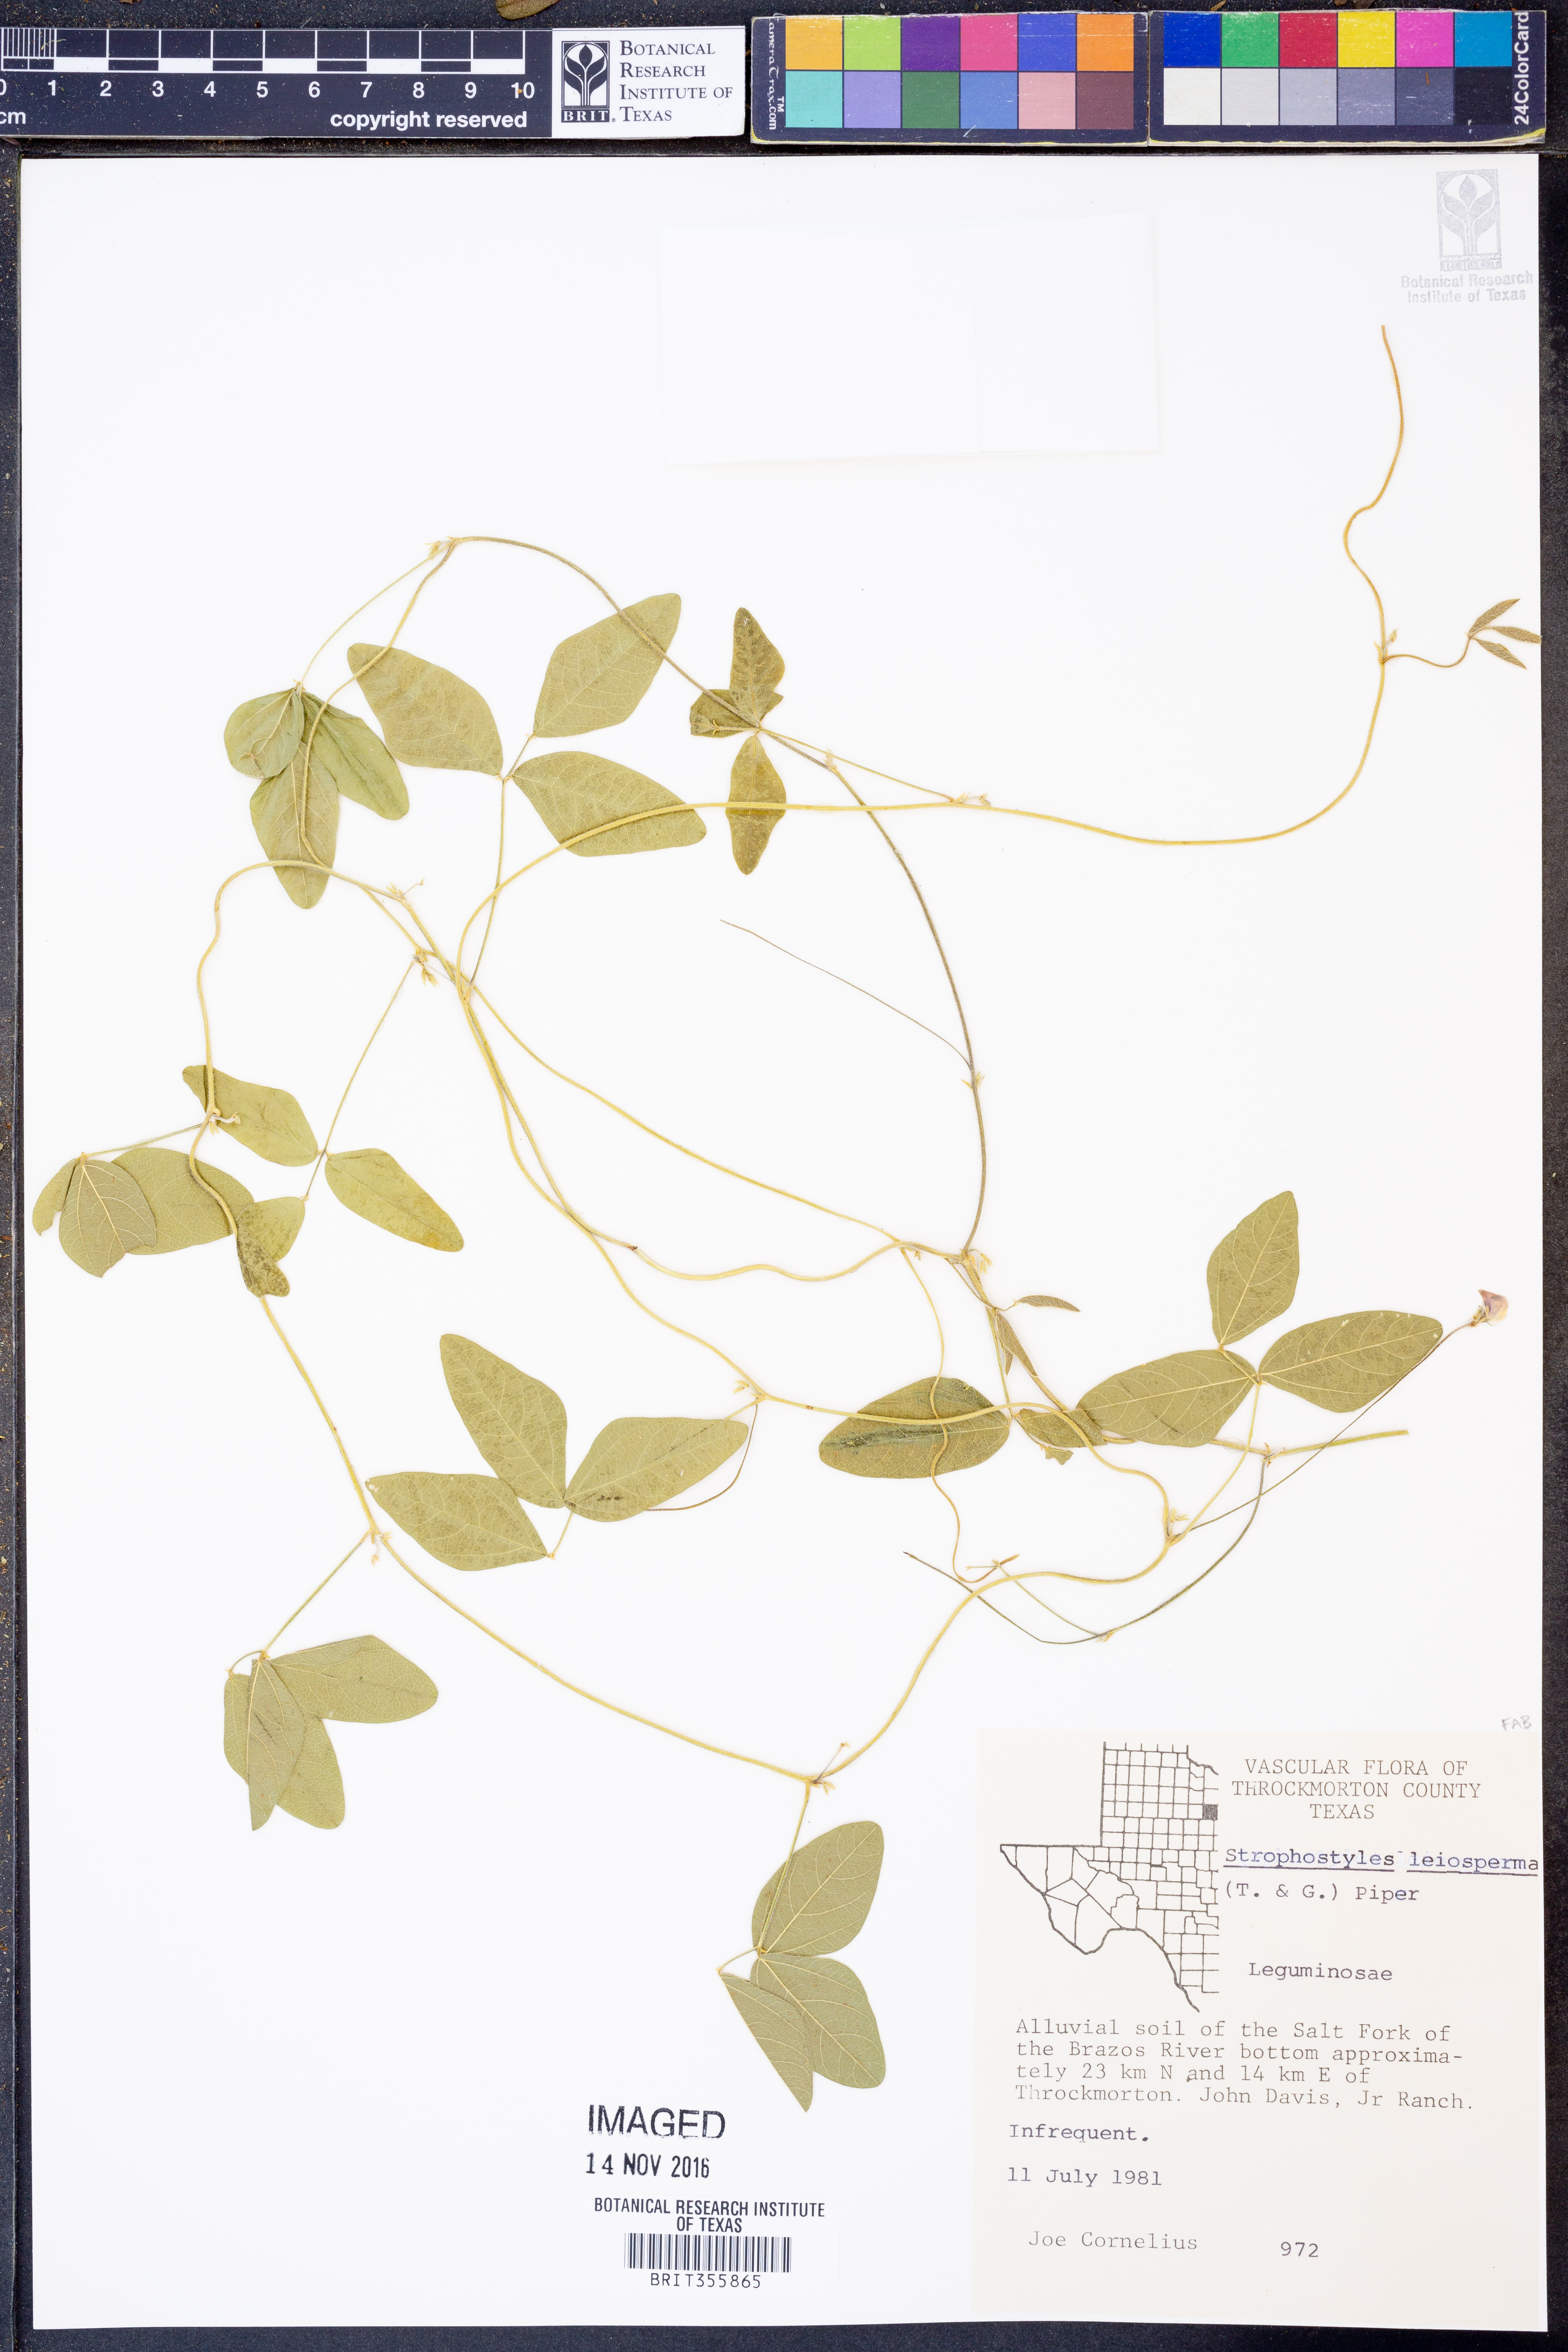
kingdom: Plantae
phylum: Tracheophyta
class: Magnoliopsida
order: Fabales
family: Fabaceae
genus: Strophostyles
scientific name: Strophostyles leiosperma
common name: Smooth-seed wild bean
